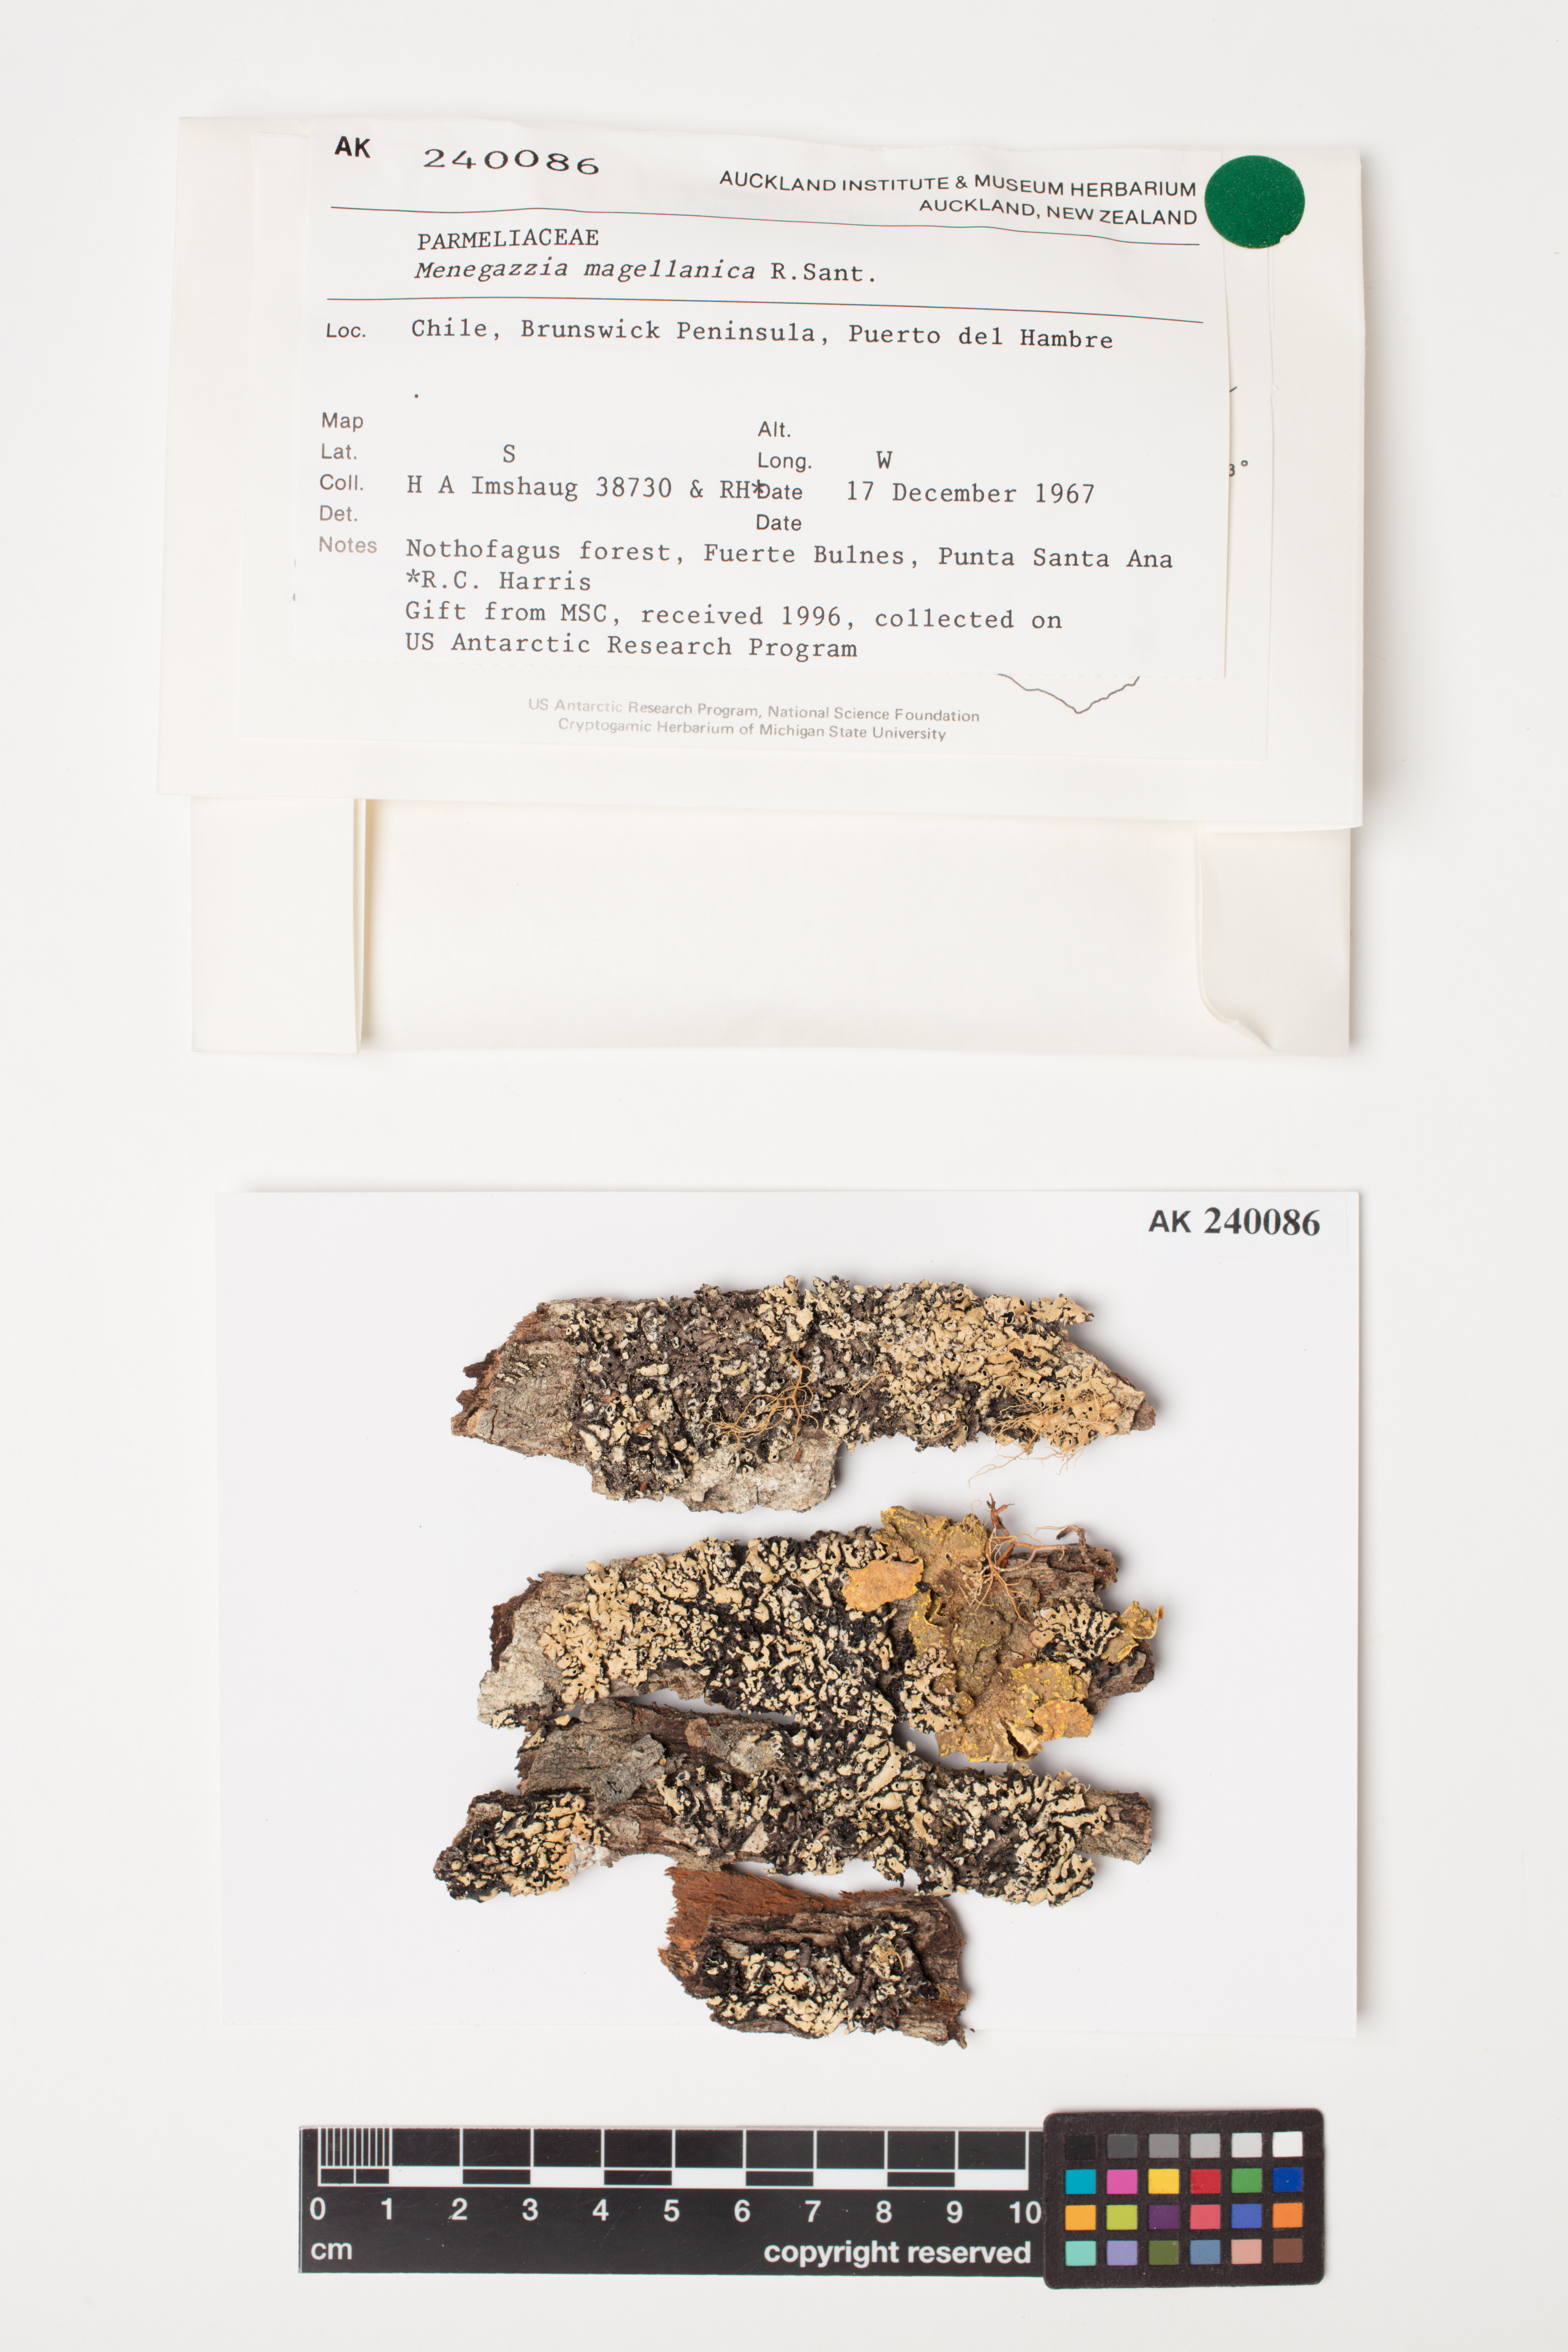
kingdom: Fungi
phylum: Ascomycota
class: Lecanoromycetes
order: Lecanorales
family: Parmeliaceae
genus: Menegazzia
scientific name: Menegazzia subpertusa
